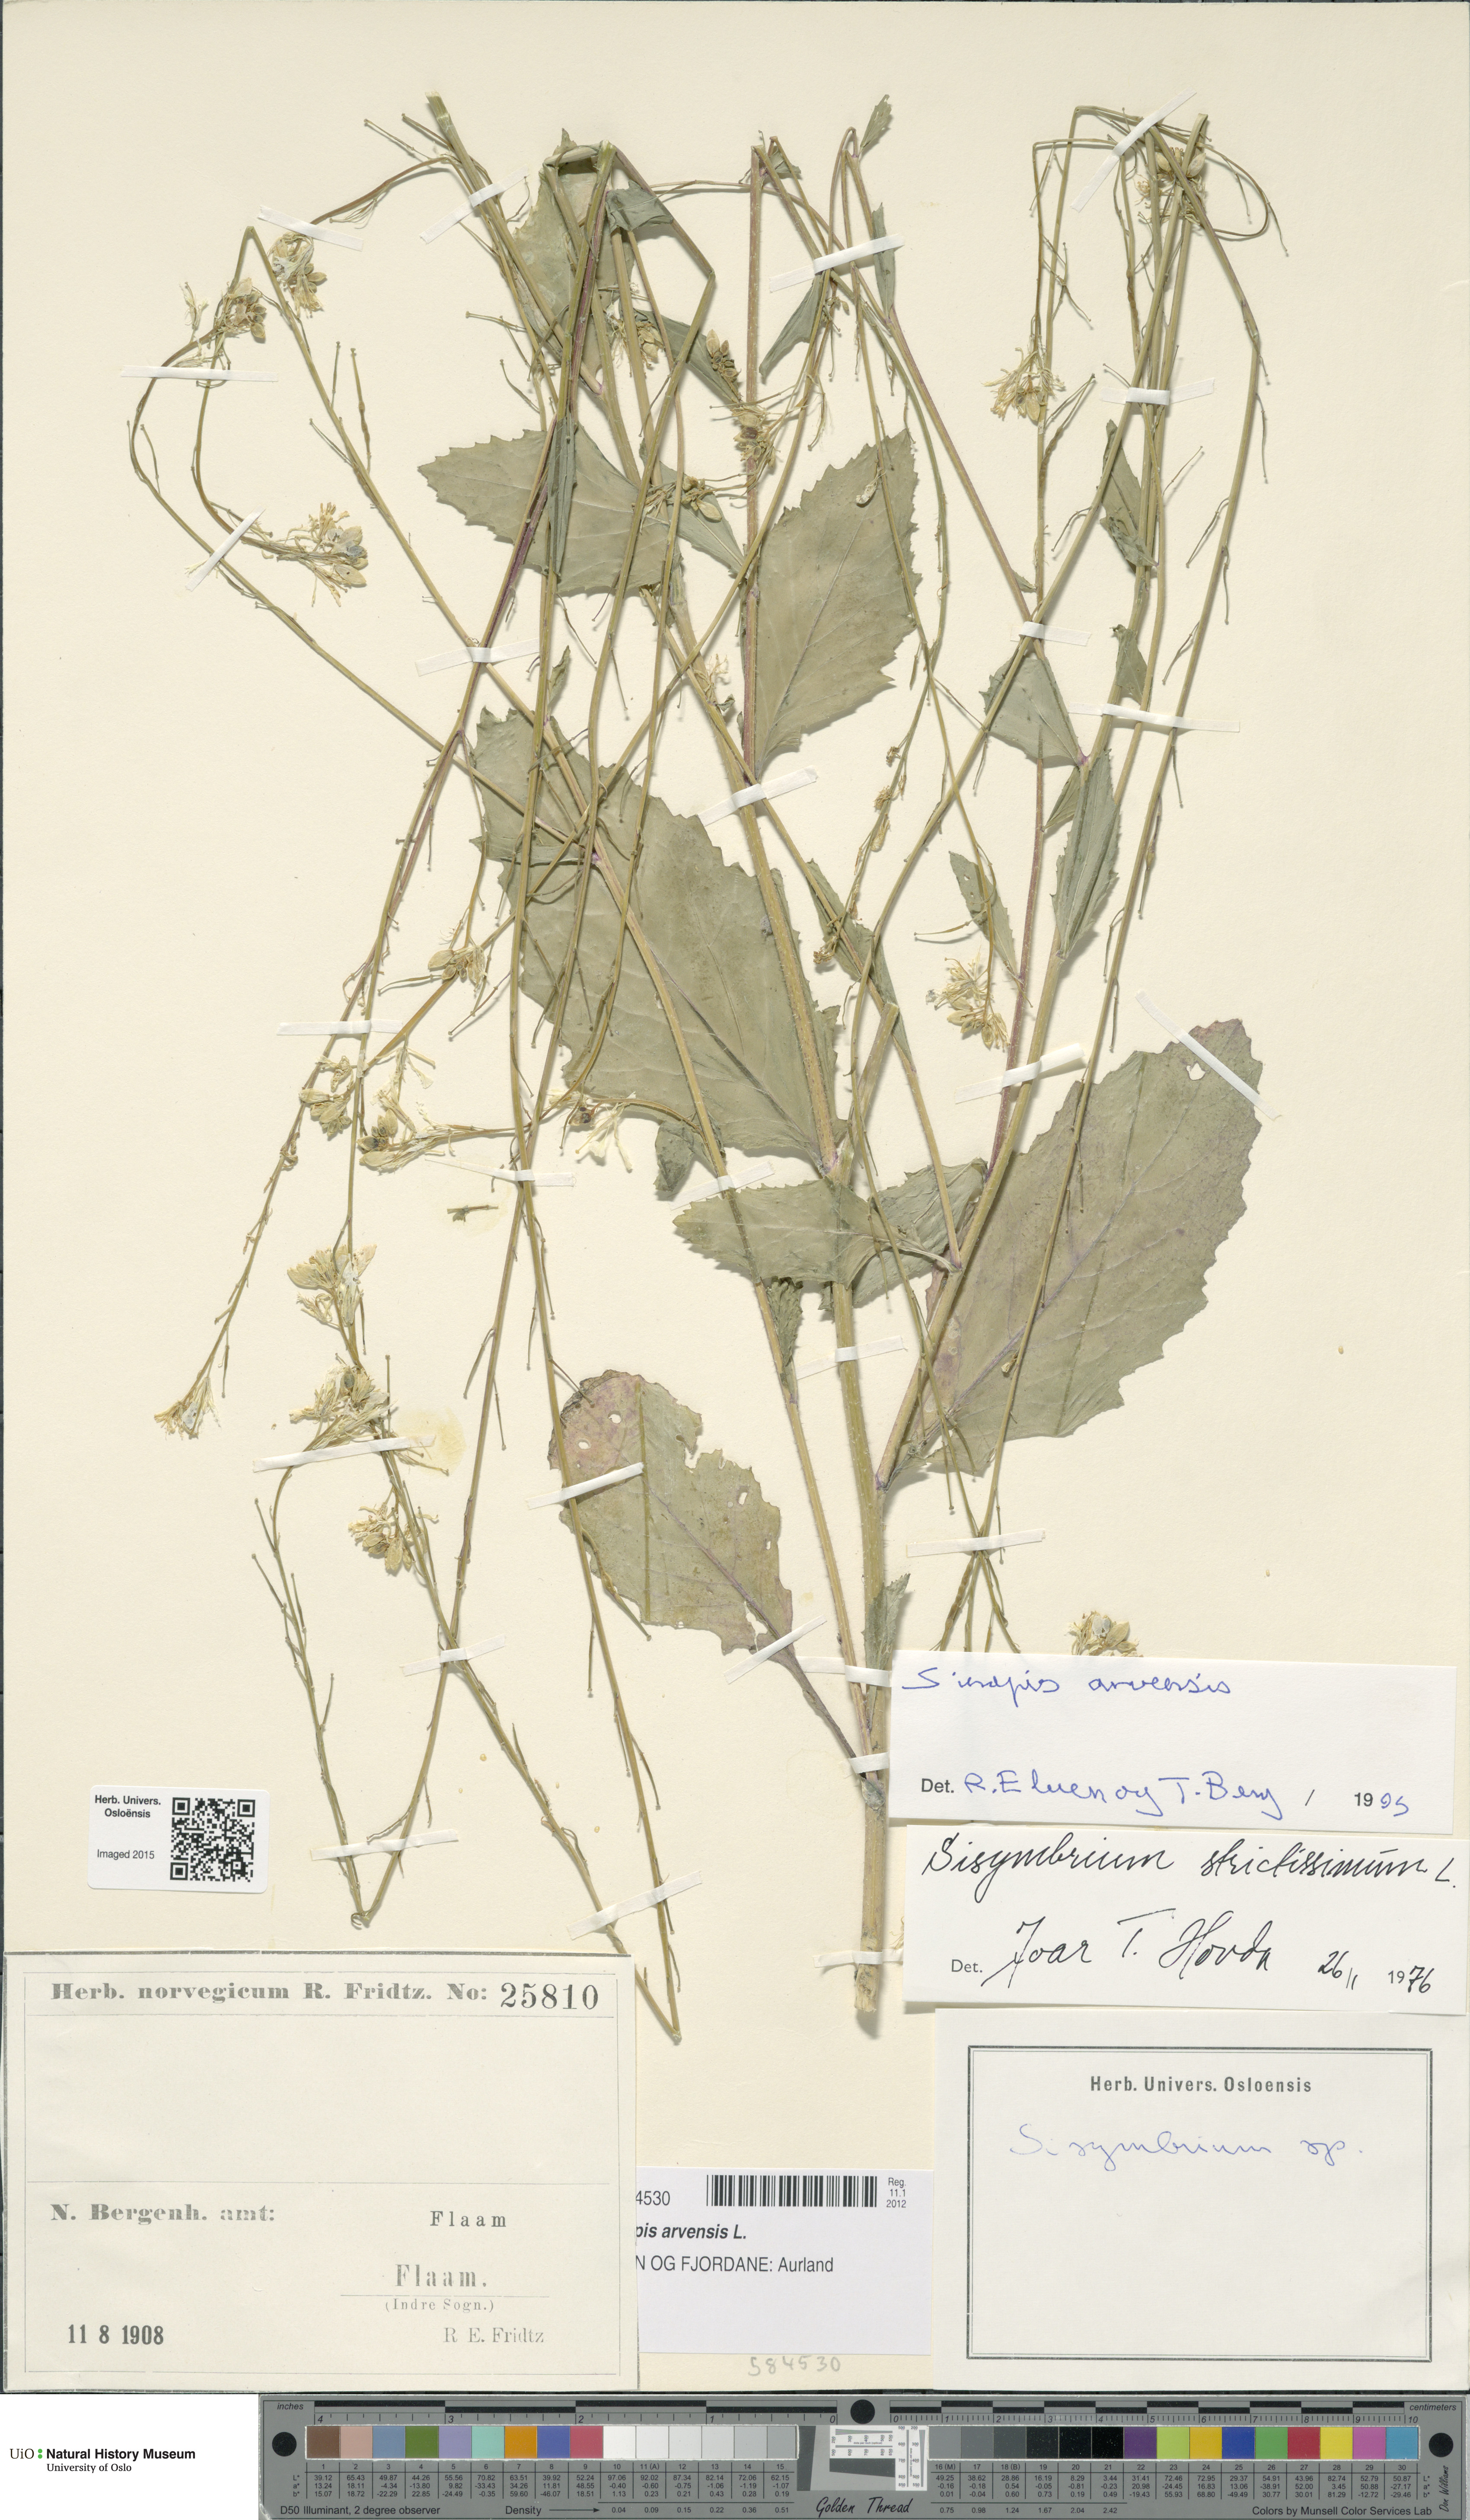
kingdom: Plantae
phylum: Tracheophyta
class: Magnoliopsida
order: Brassicales
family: Brassicaceae
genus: Sisymbrium
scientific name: Sisymbrium strictissimum
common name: Perennial rocket
